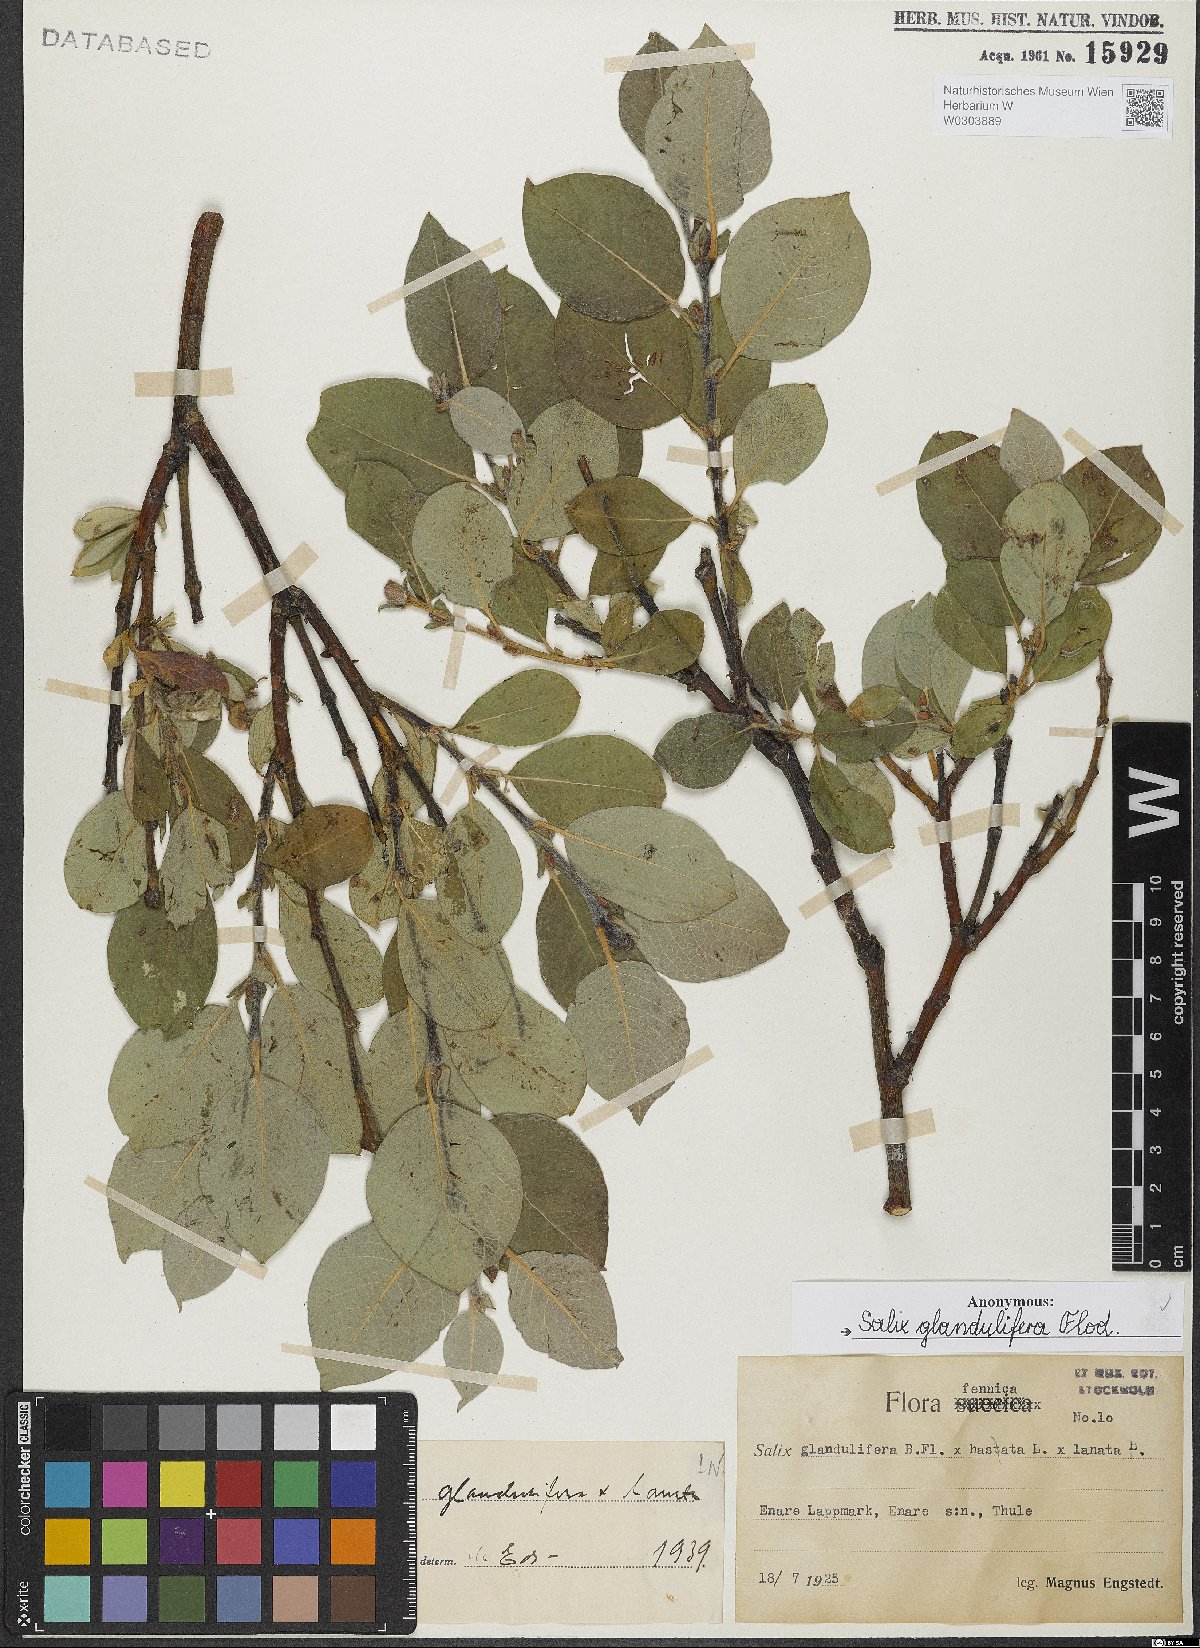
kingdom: Plantae
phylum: Tracheophyta
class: Magnoliopsida
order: Malpighiales
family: Salicaceae
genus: Salix
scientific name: Salix lanata
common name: Woolly willow
